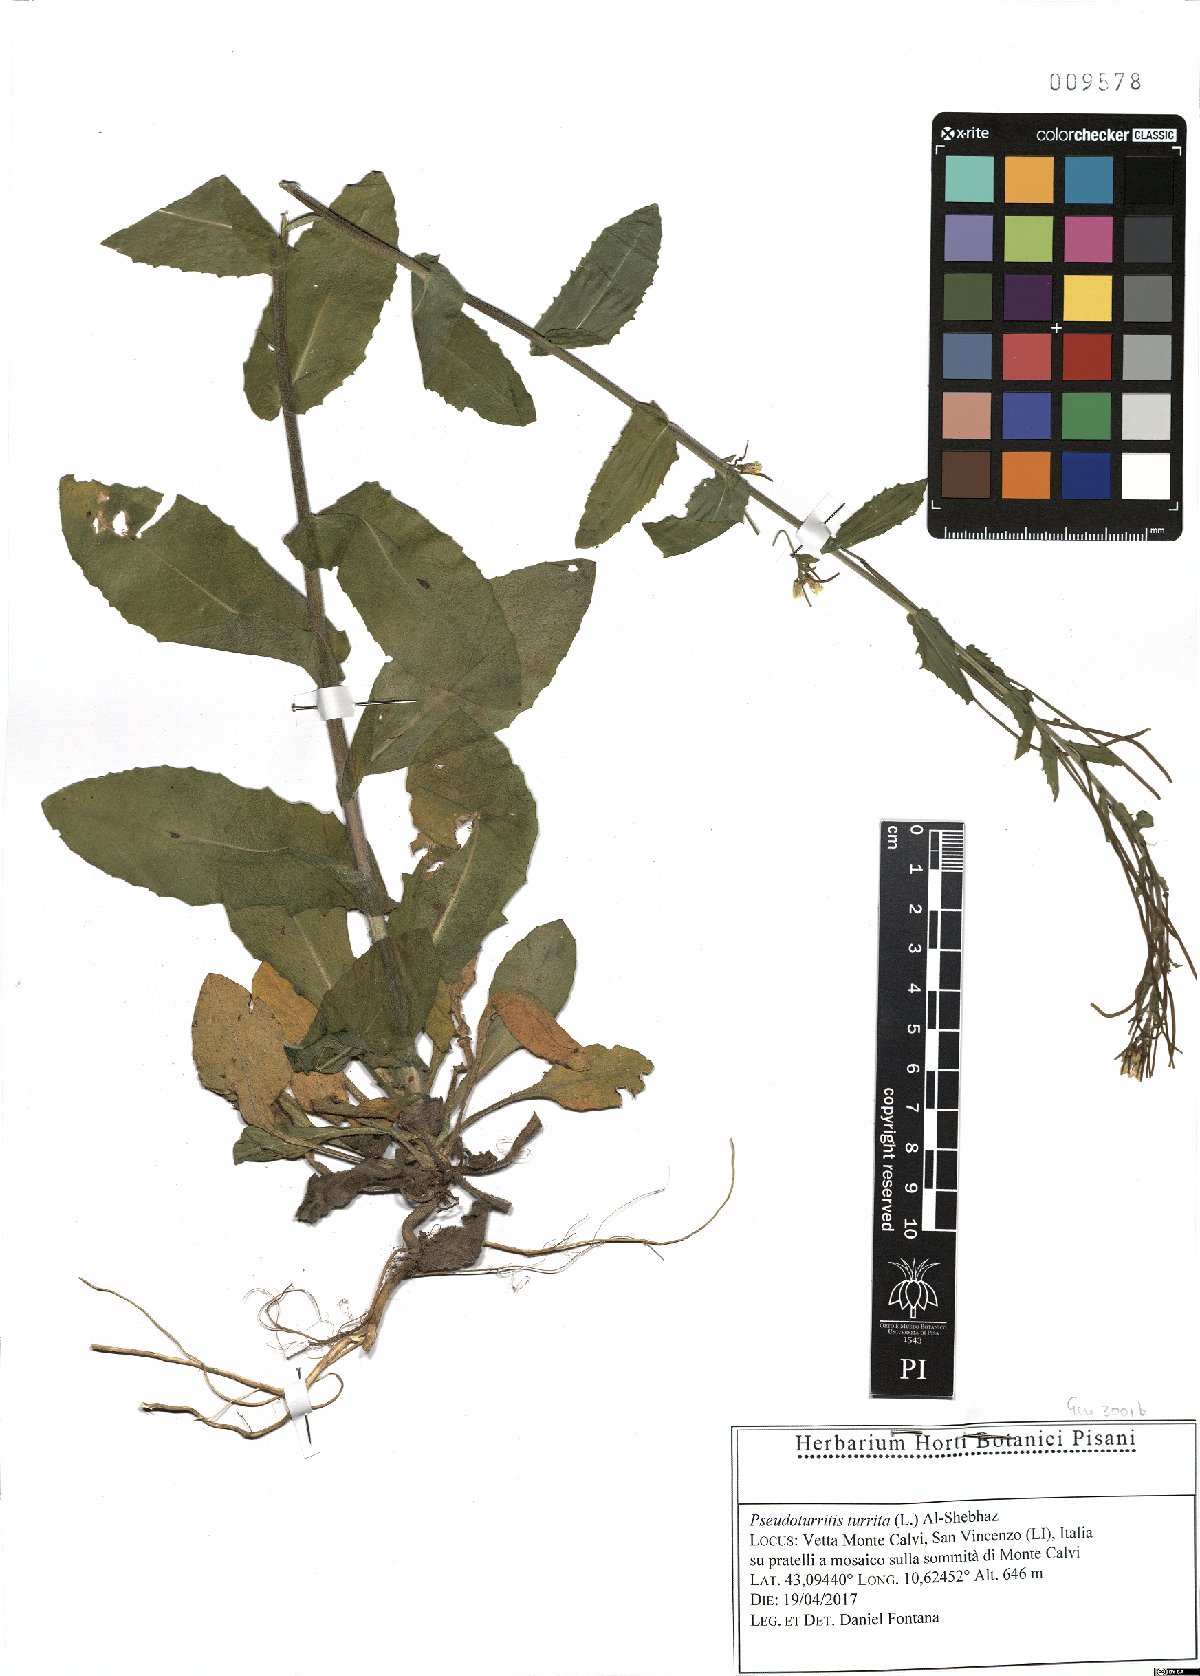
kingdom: Plantae
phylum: Tracheophyta
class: Magnoliopsida
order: Brassicales
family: Brassicaceae
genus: Pseudoturritis
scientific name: Pseudoturritis turrita
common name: Tower cress
